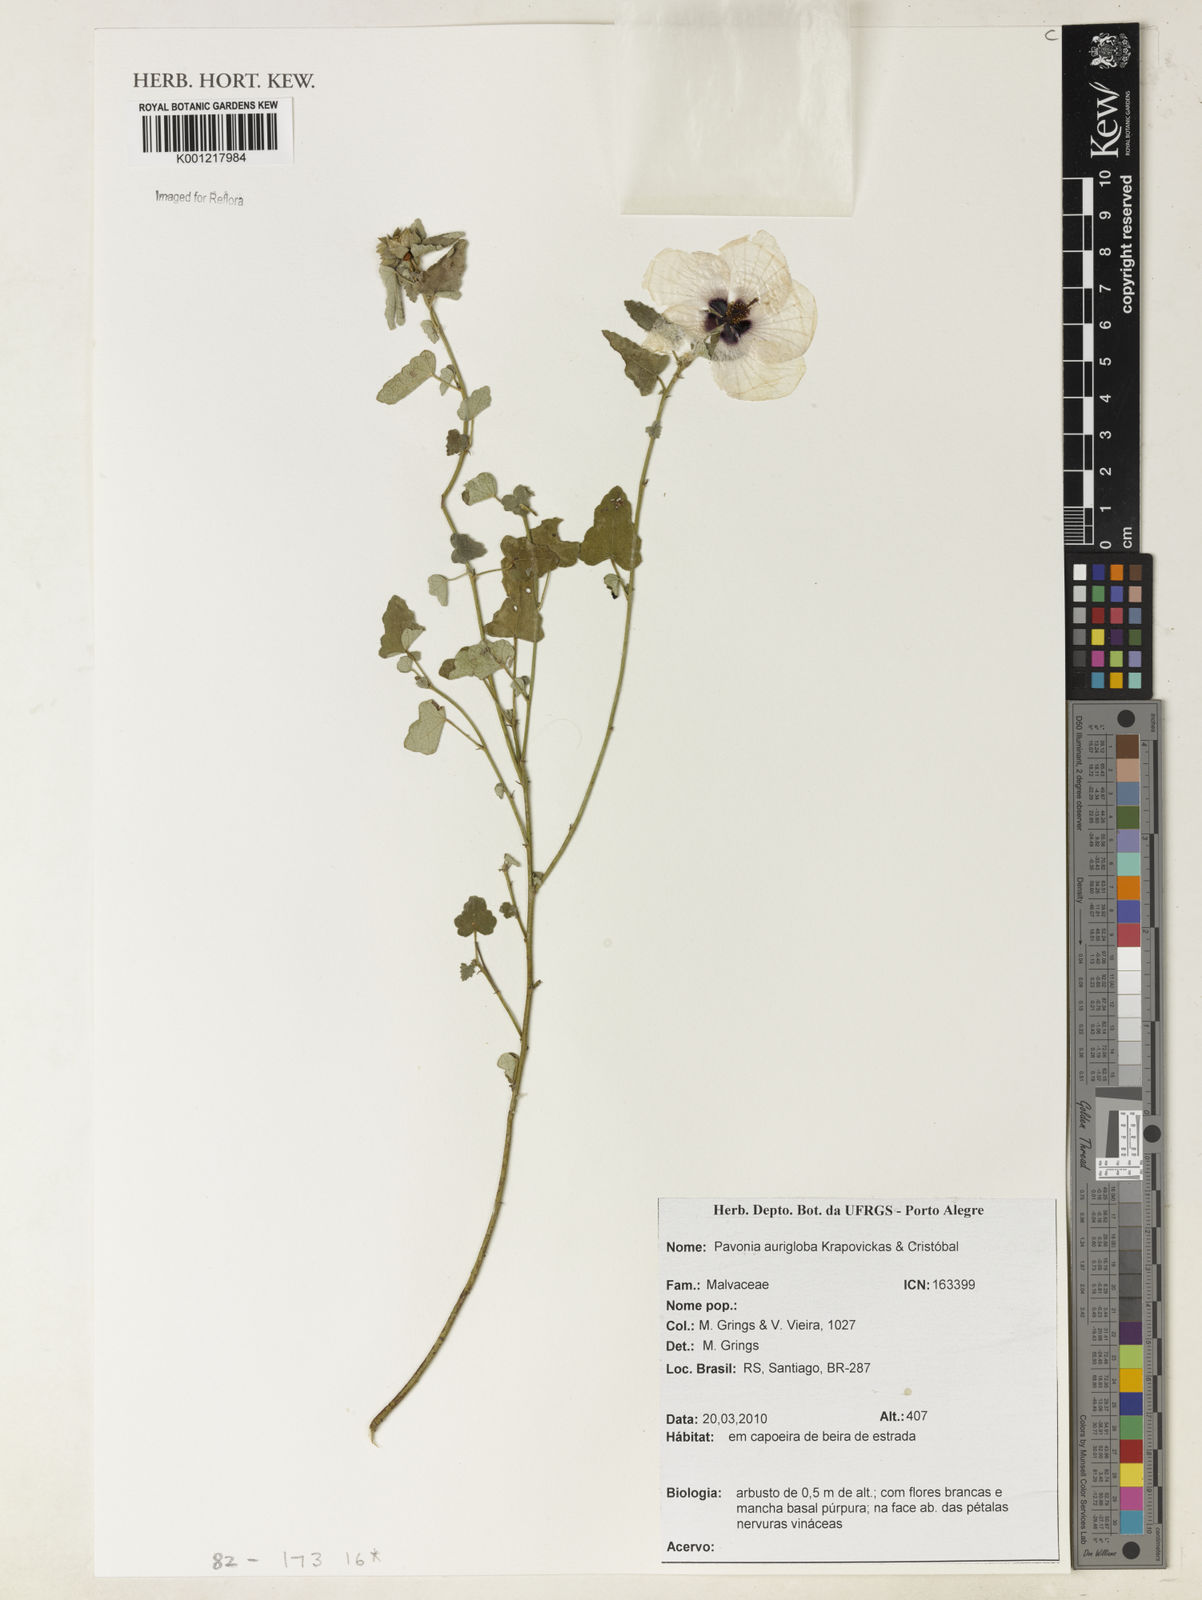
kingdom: Plantae
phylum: Tracheophyta
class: Magnoliopsida
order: Malvales
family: Malvaceae
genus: Pavonia
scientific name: Pavonia
